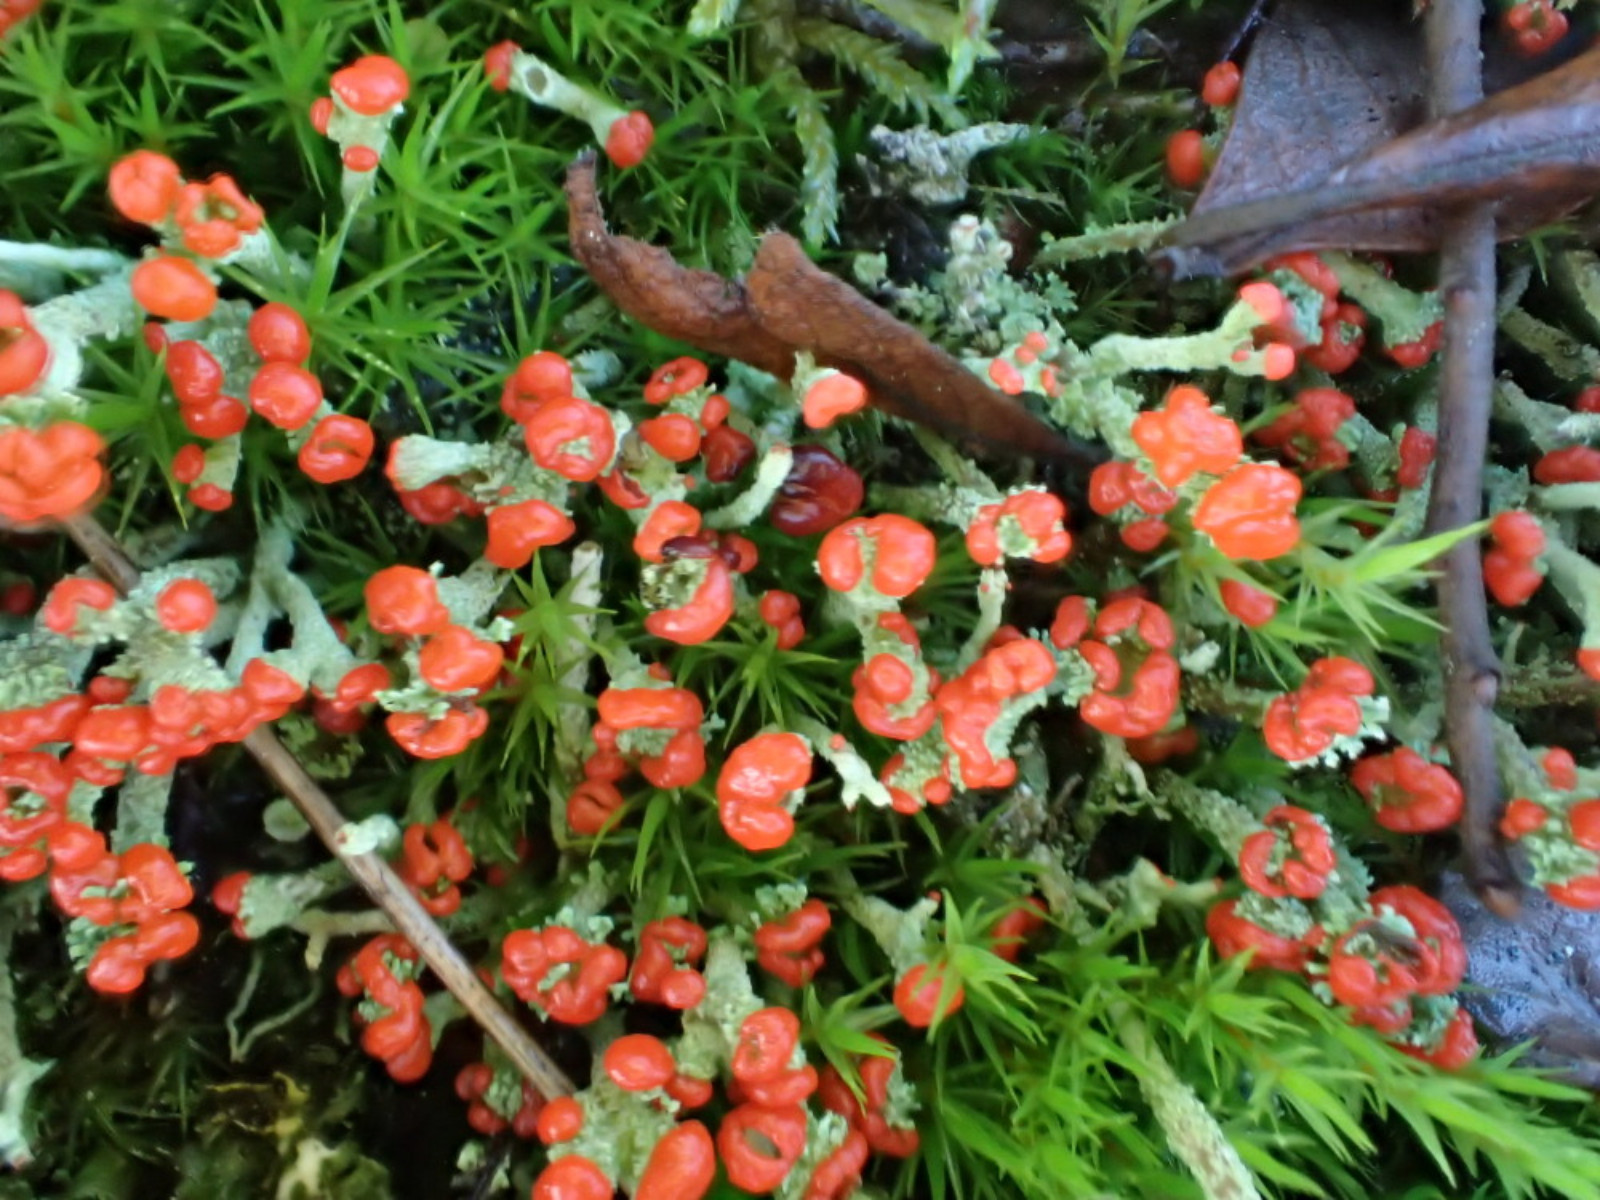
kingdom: Fungi
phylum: Ascomycota
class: Lecanoromycetes
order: Lecanorales
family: Cladoniaceae
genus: Cladonia
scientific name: Cladonia floerkeana
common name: lakrød bægerlav
